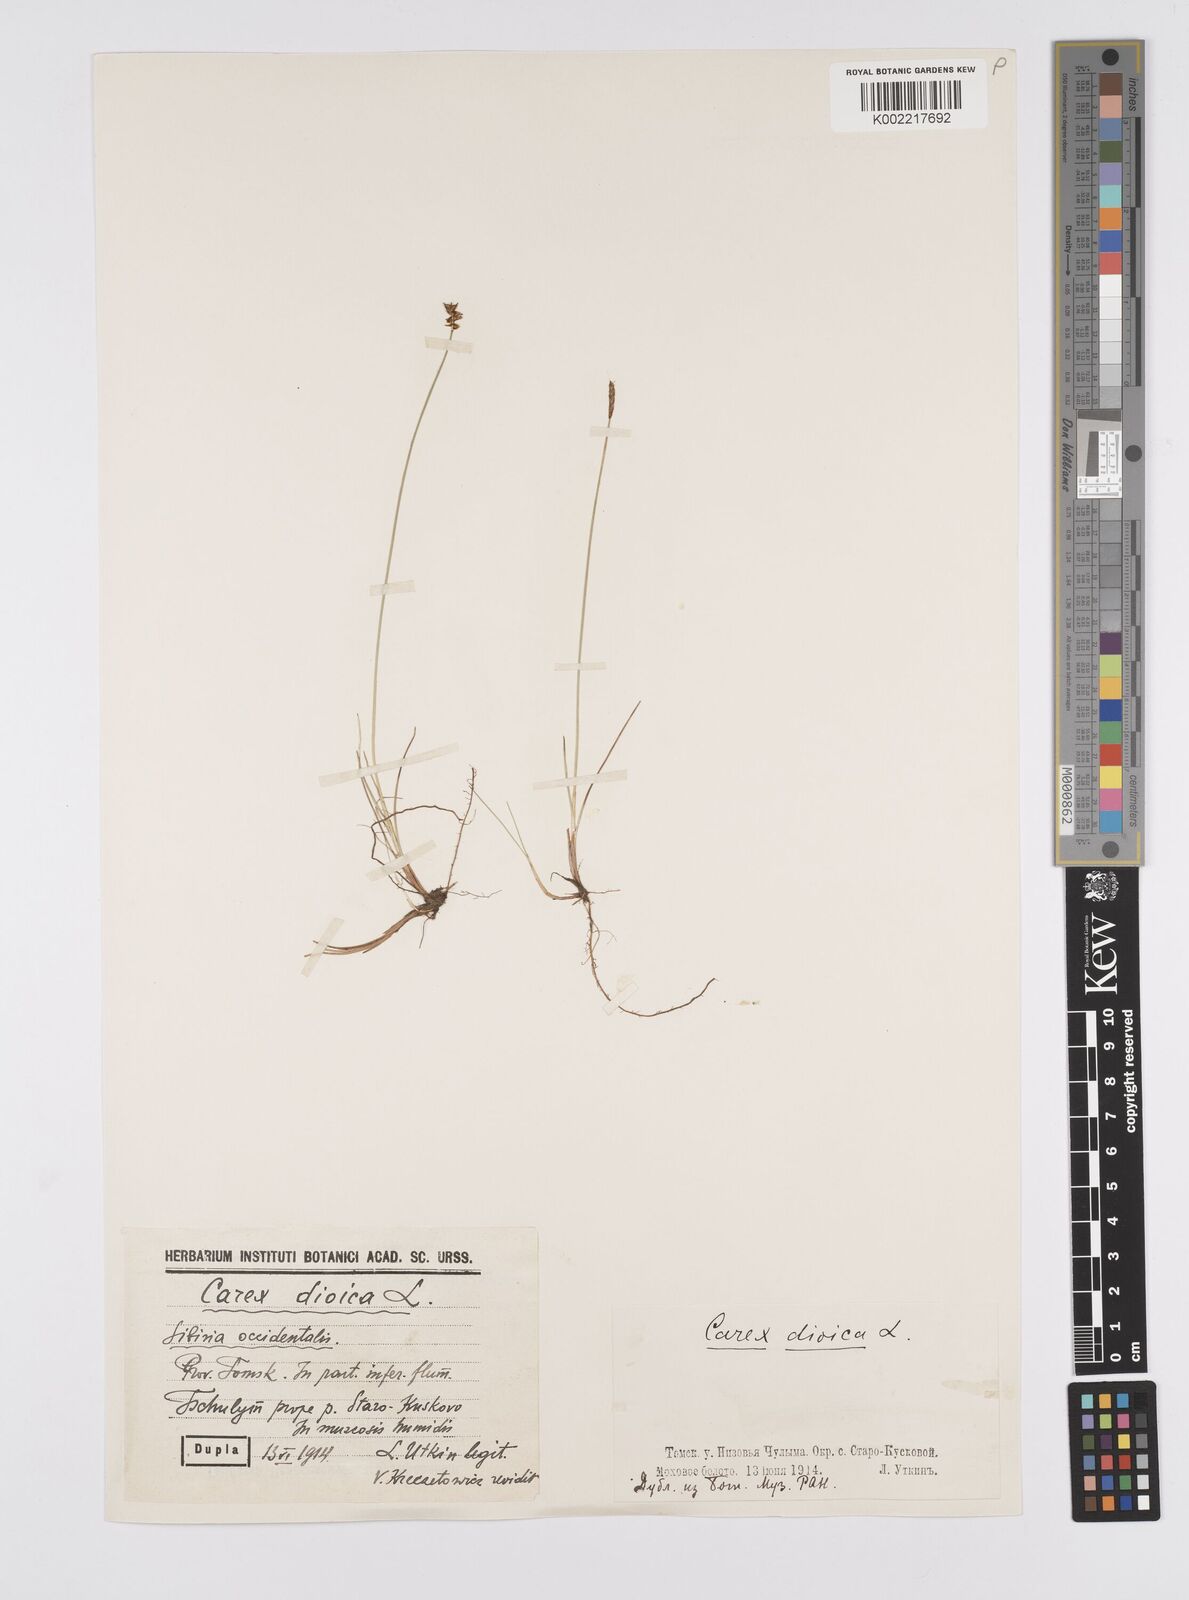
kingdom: Plantae
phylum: Tracheophyta
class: Liliopsida
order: Poales
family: Cyperaceae
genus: Carex
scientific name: Carex dioica
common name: Dioecious sedge
